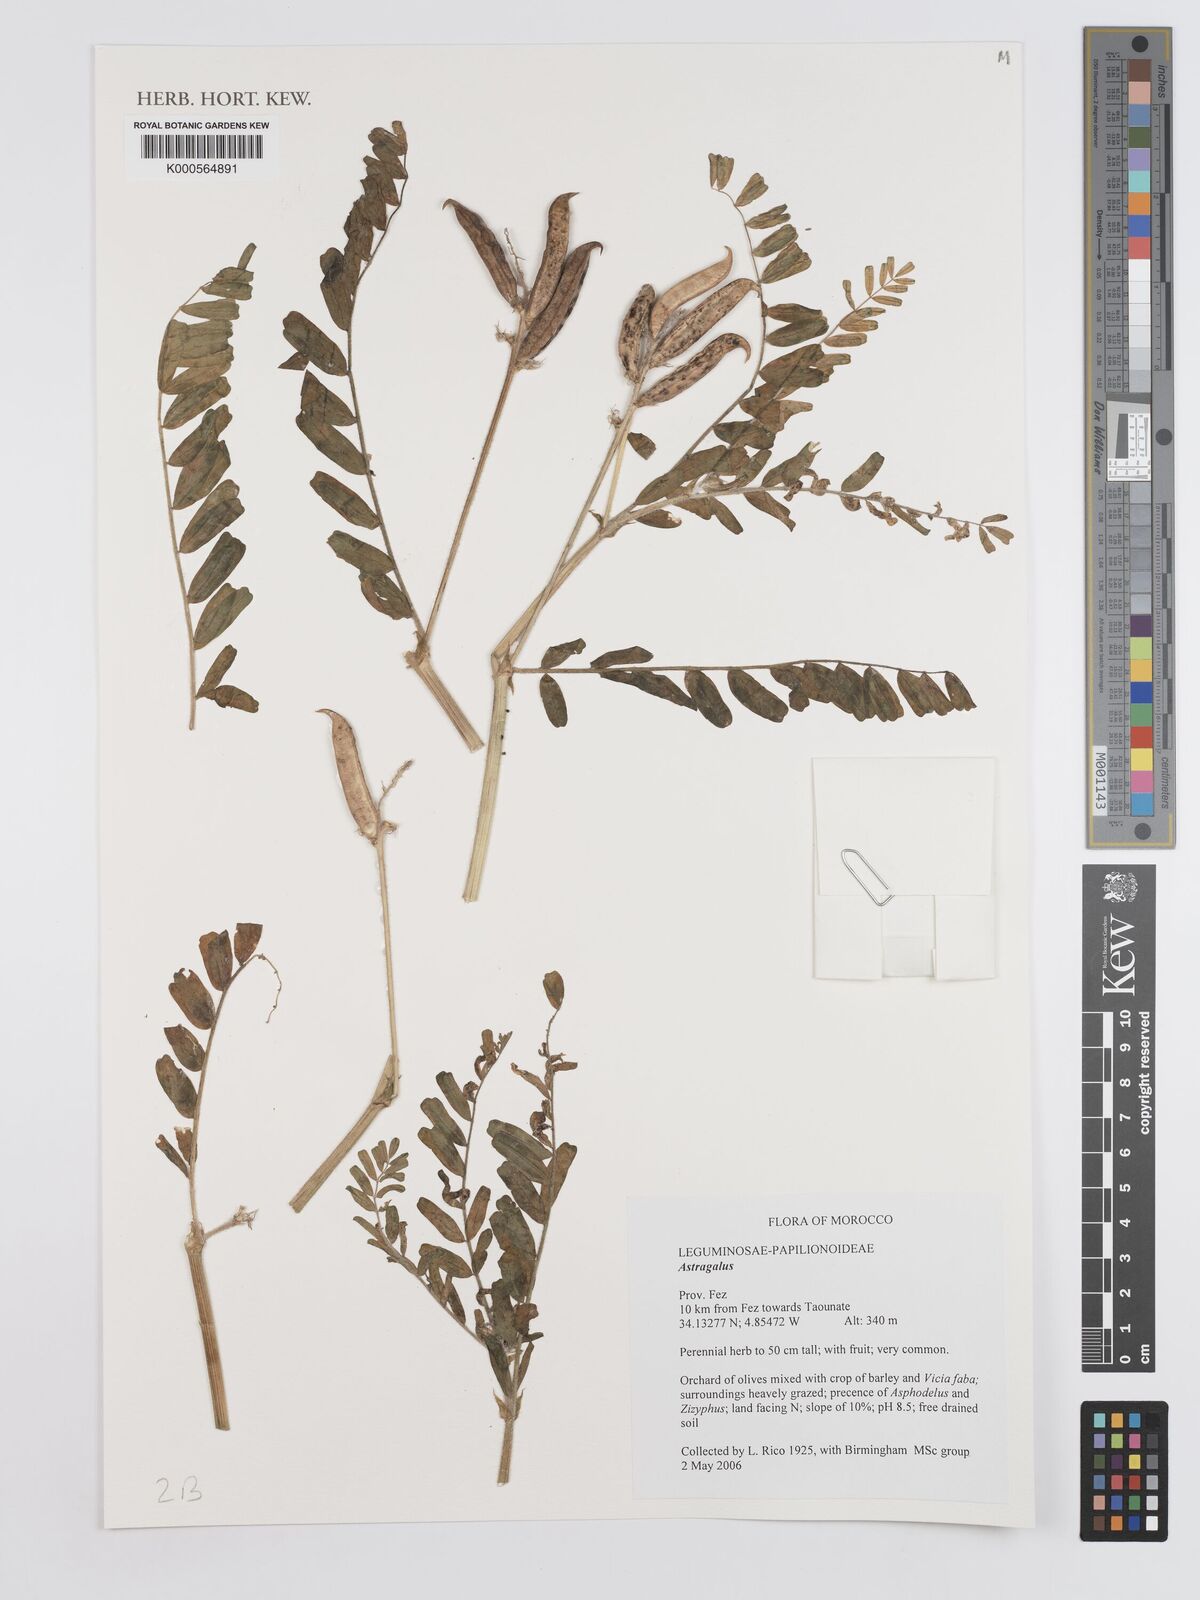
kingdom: Plantae
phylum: Tracheophyta
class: Magnoliopsida
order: Fabales
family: Fabaceae
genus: Astragalus
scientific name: Astragalus
